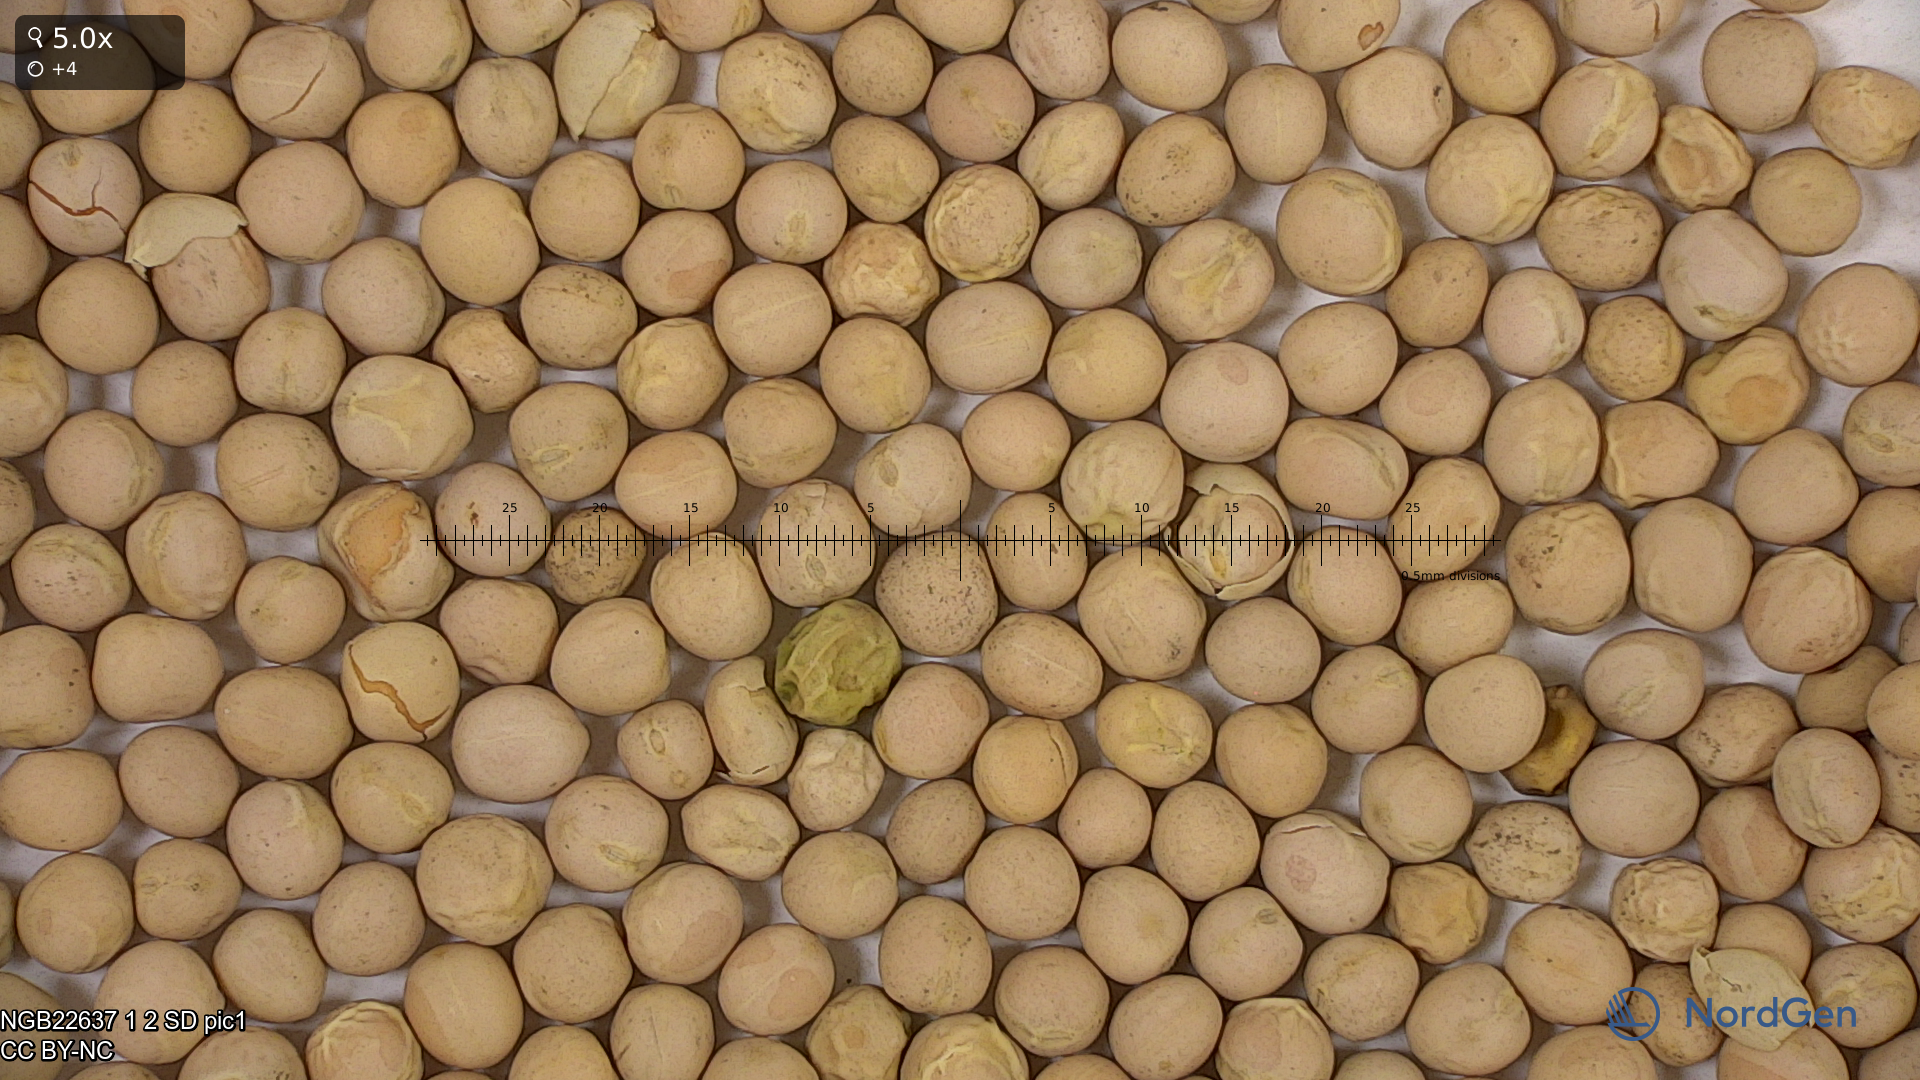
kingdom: Plantae
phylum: Tracheophyta
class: Magnoliopsida
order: Fabales
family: Fabaceae
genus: Lathyrus
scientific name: Lathyrus oleraceus
